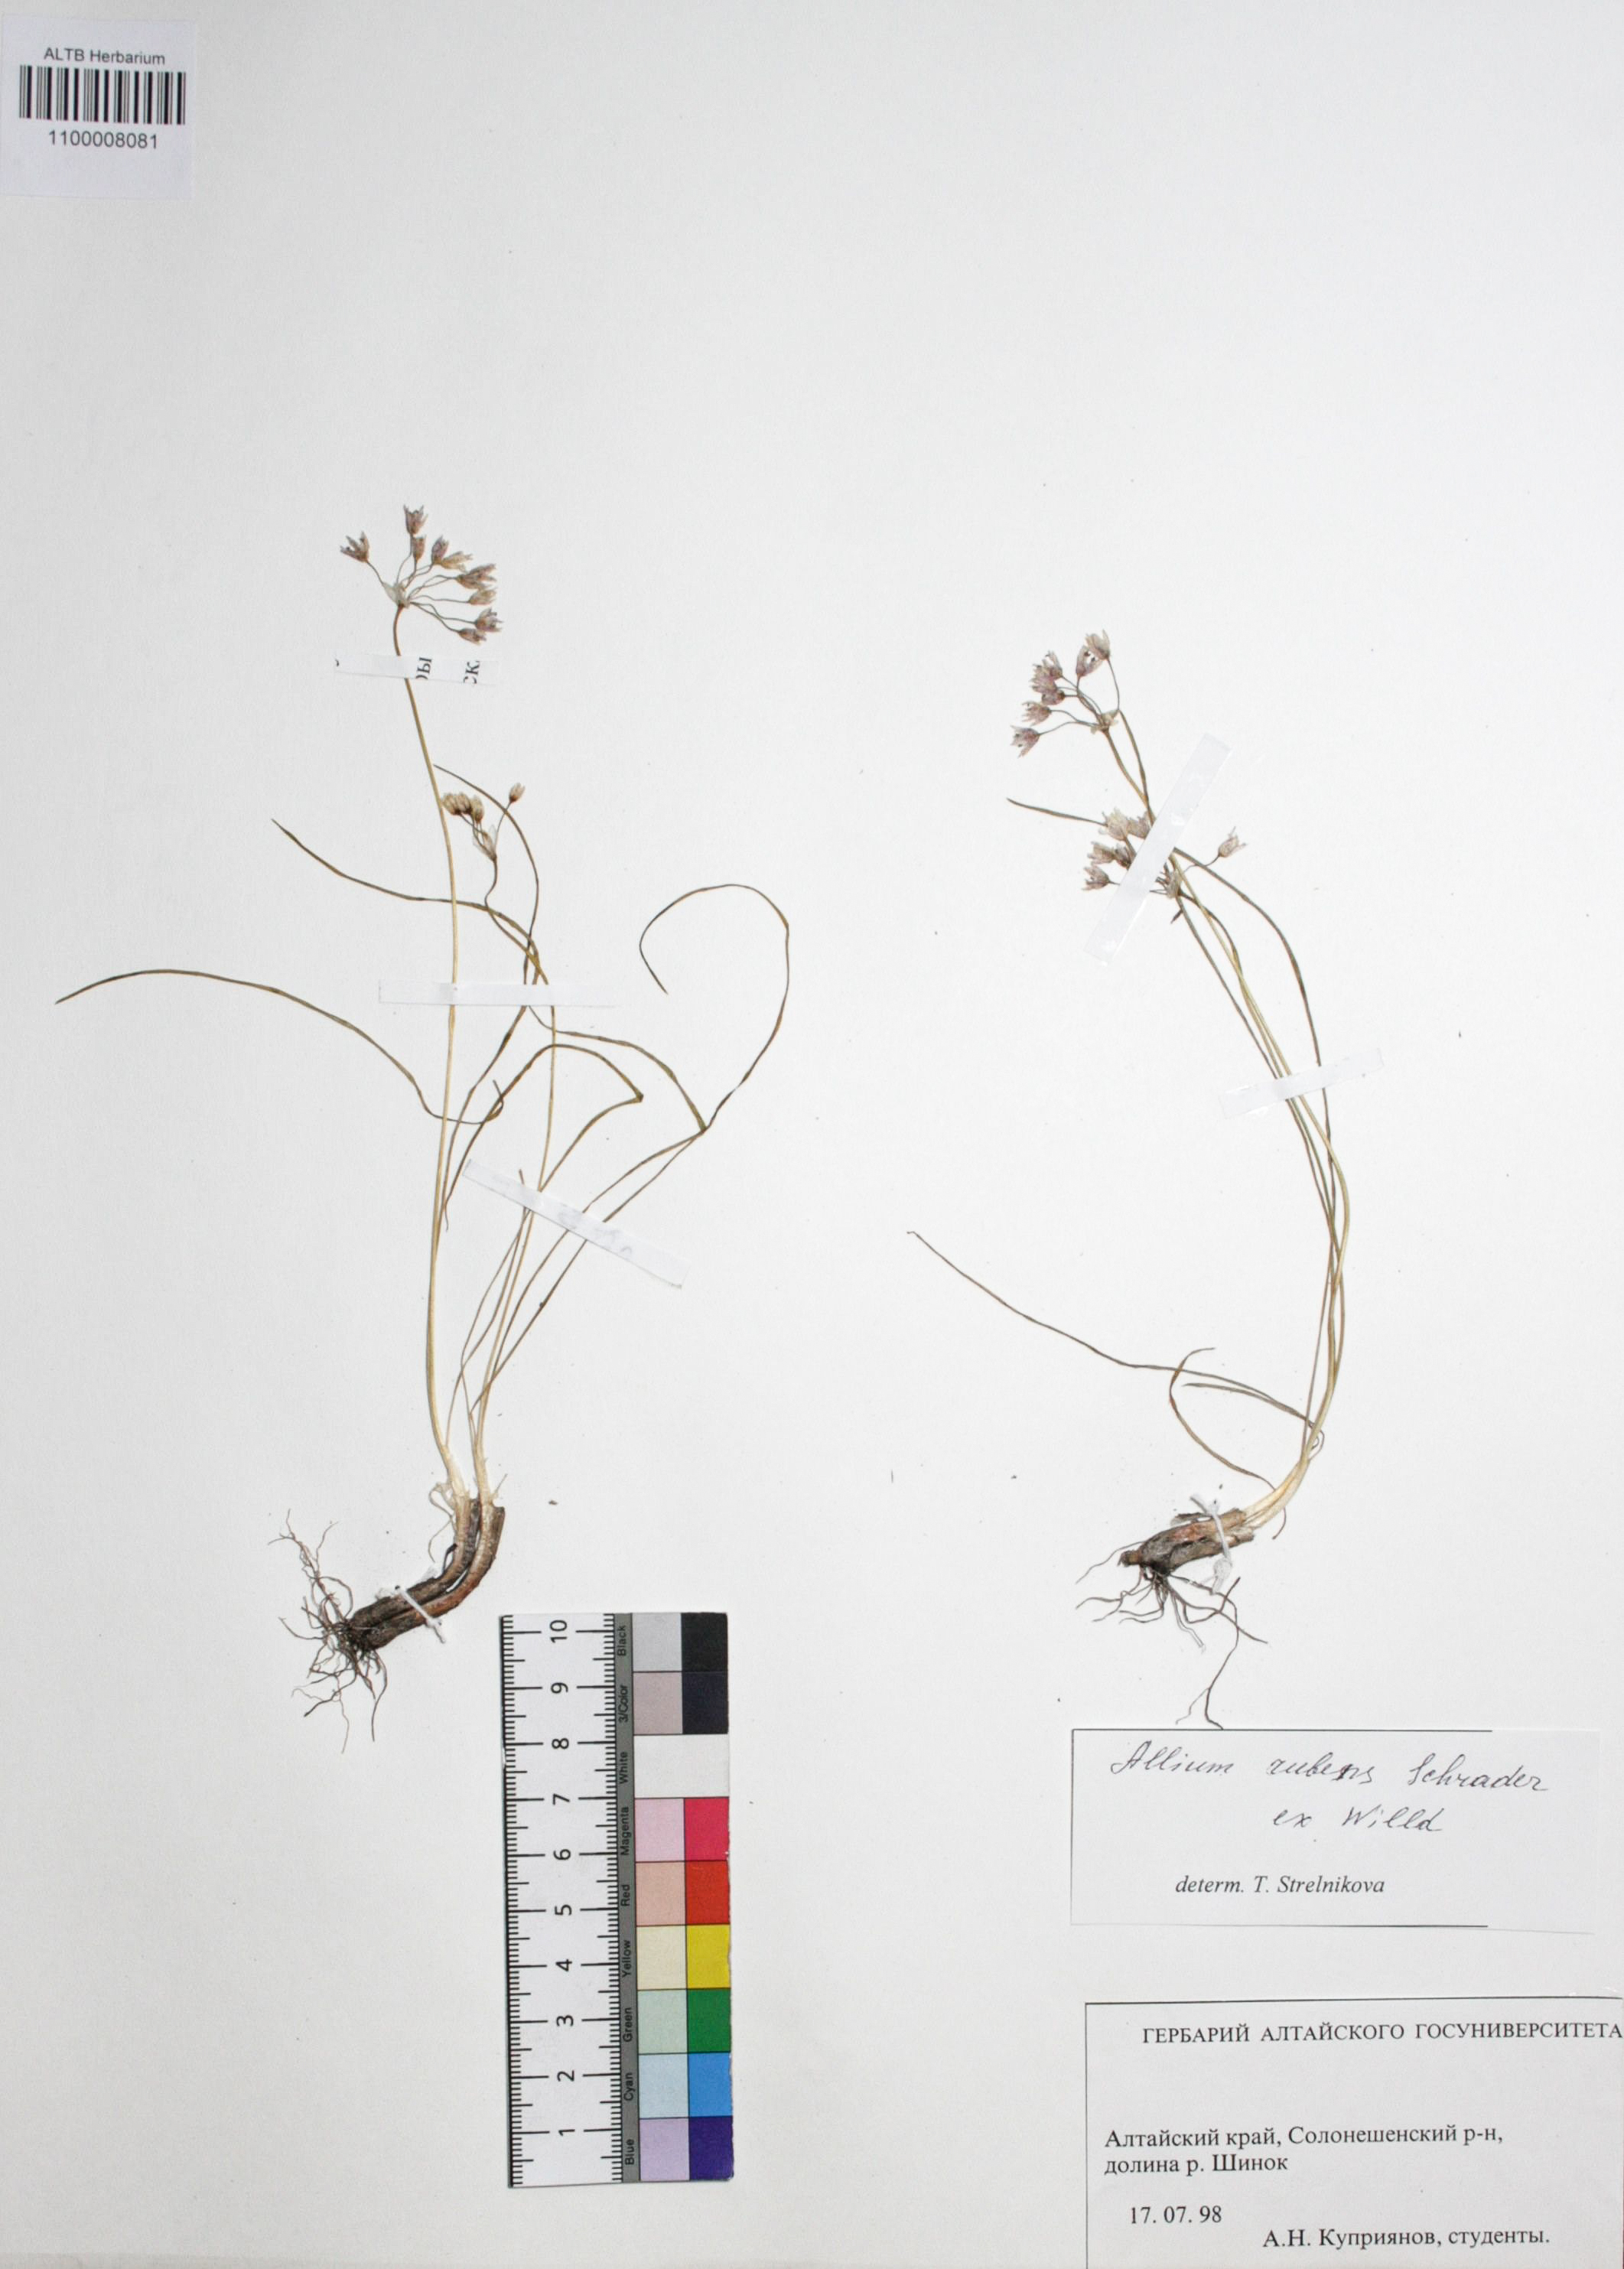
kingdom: Plantae
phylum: Tracheophyta
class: Liliopsida
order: Asparagales
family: Amaryllidaceae
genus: Allium
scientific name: Allium rubens
